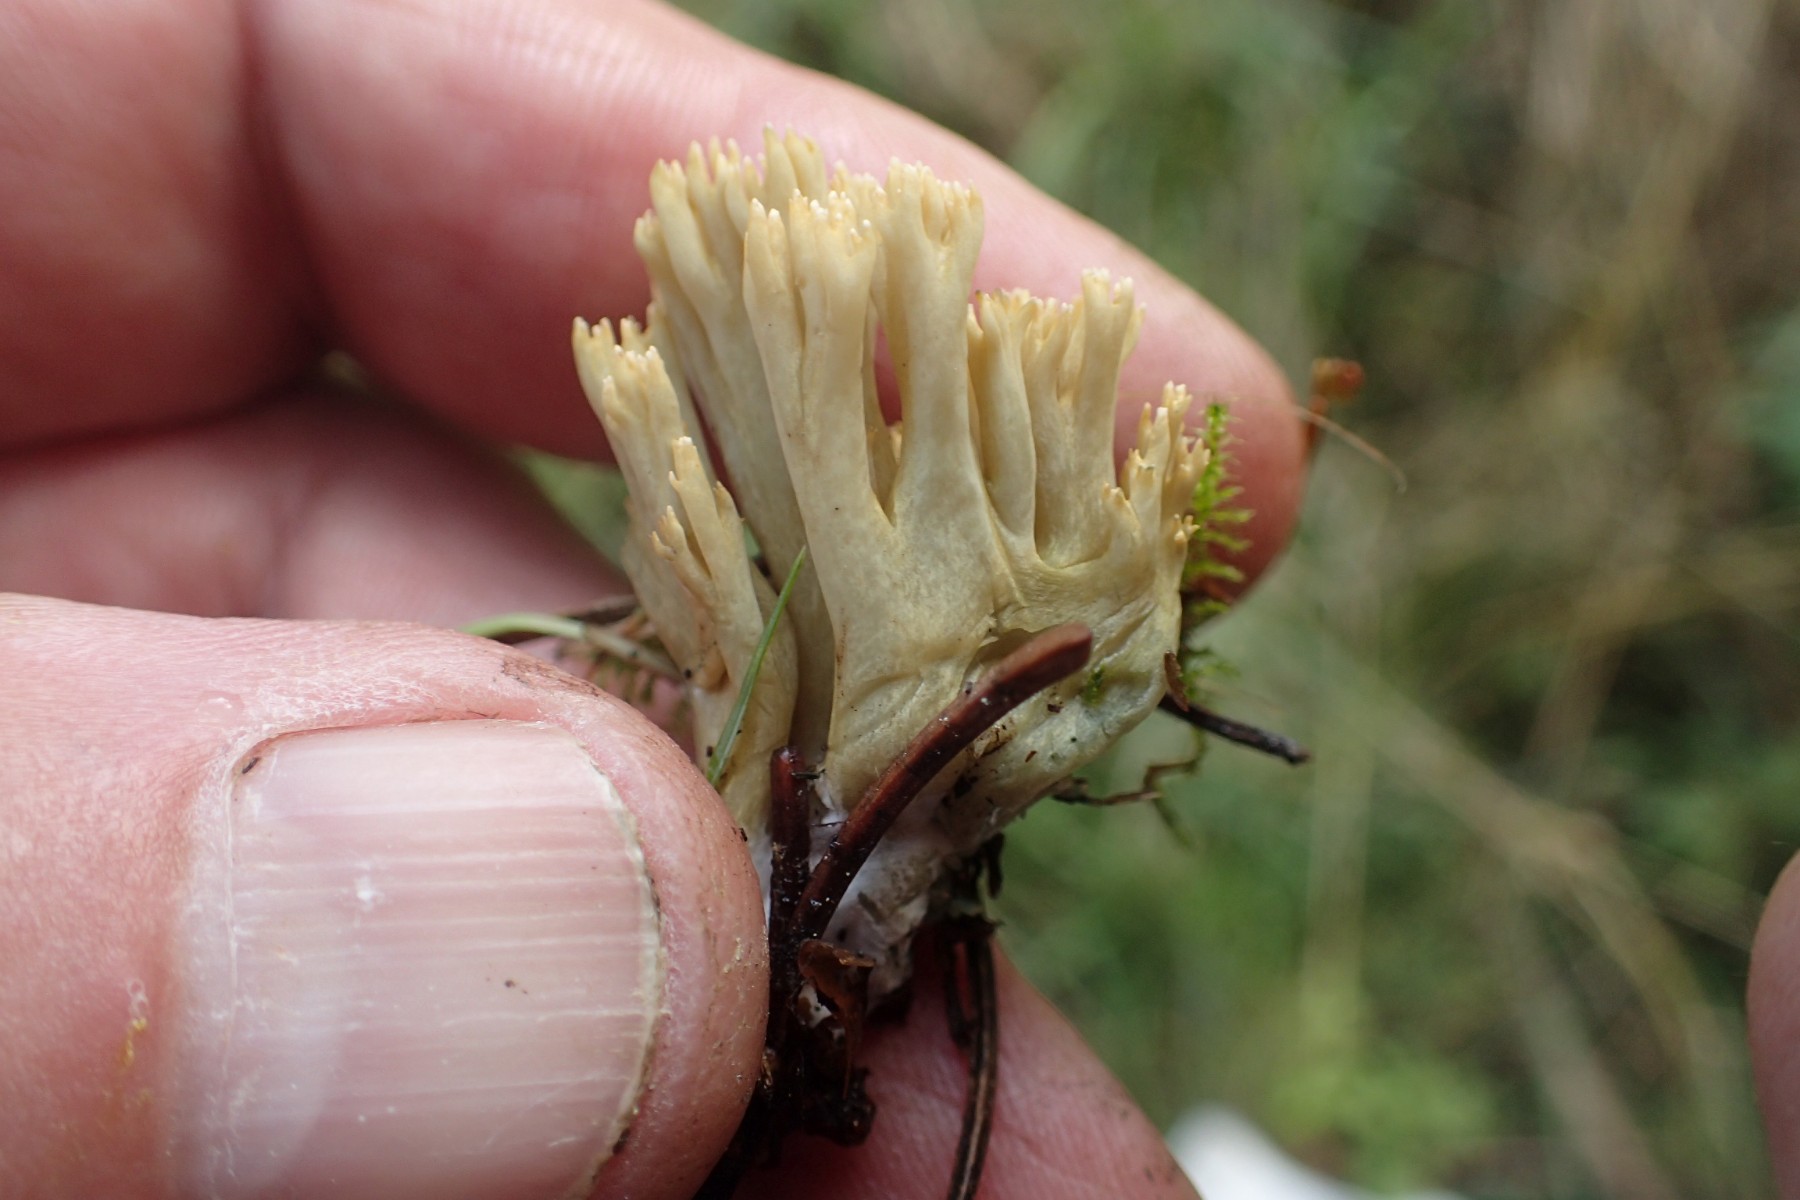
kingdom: Fungi
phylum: Basidiomycota
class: Agaricomycetes
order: Gomphales
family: Gomphaceae
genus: Ramaria
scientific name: Ramaria stricta
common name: rank koralsvamp
